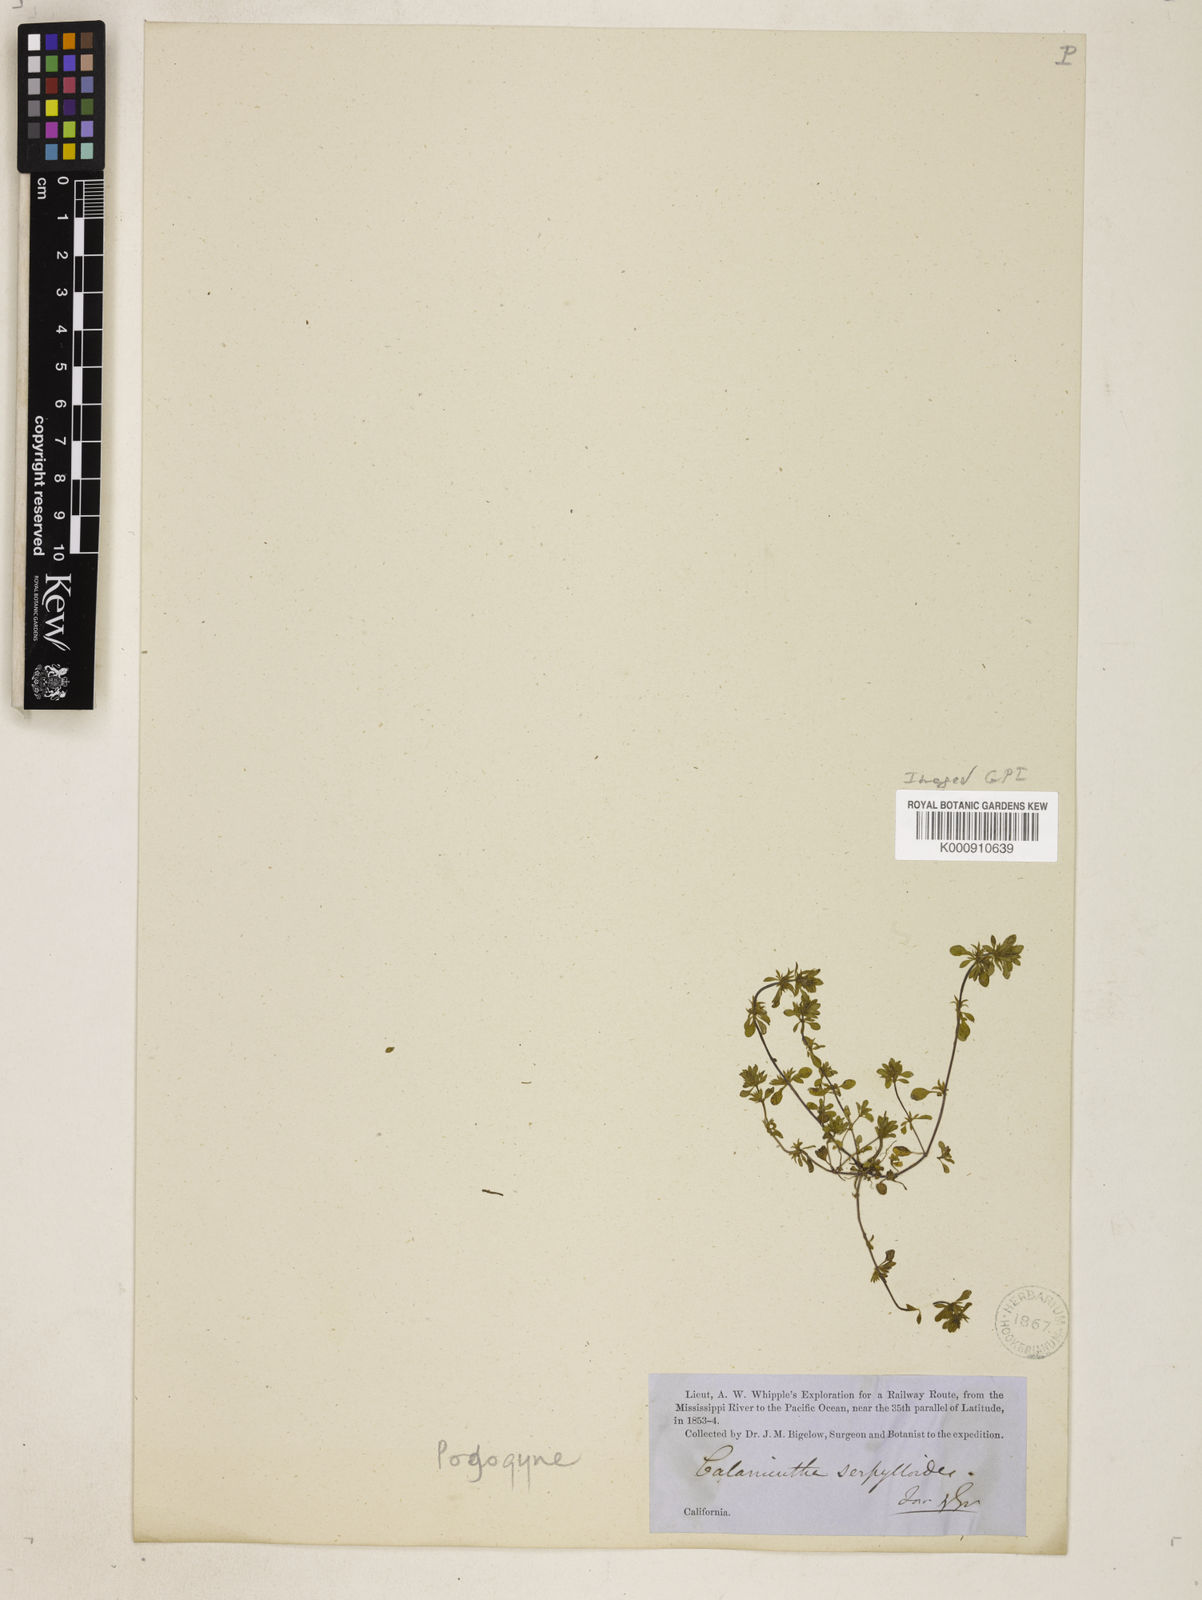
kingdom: Plantae
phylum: Tracheophyta
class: Magnoliopsida
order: Lamiales
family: Lamiaceae
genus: Pogogyne
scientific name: Pogogyne serpylloides
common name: Thymeleaf mesamint
